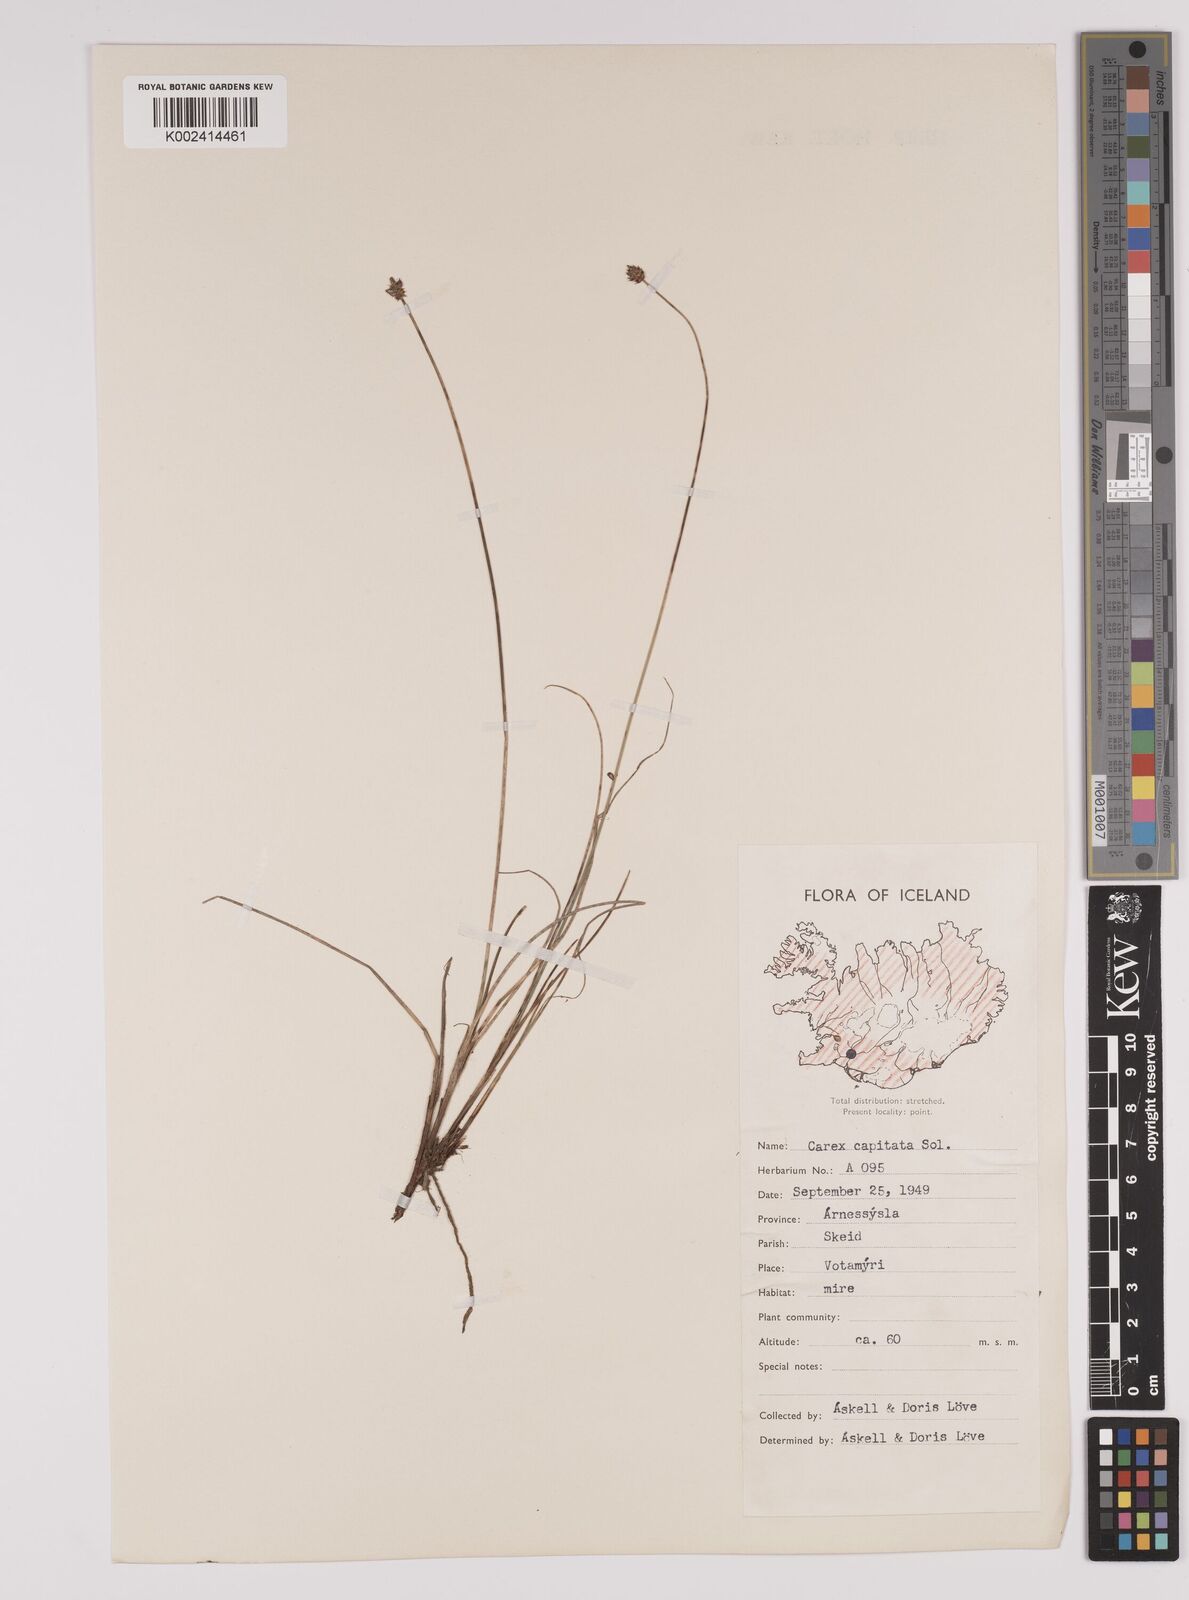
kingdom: Plantae
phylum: Tracheophyta
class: Liliopsida
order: Poales
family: Cyperaceae
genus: Carex
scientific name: Carex capitata
